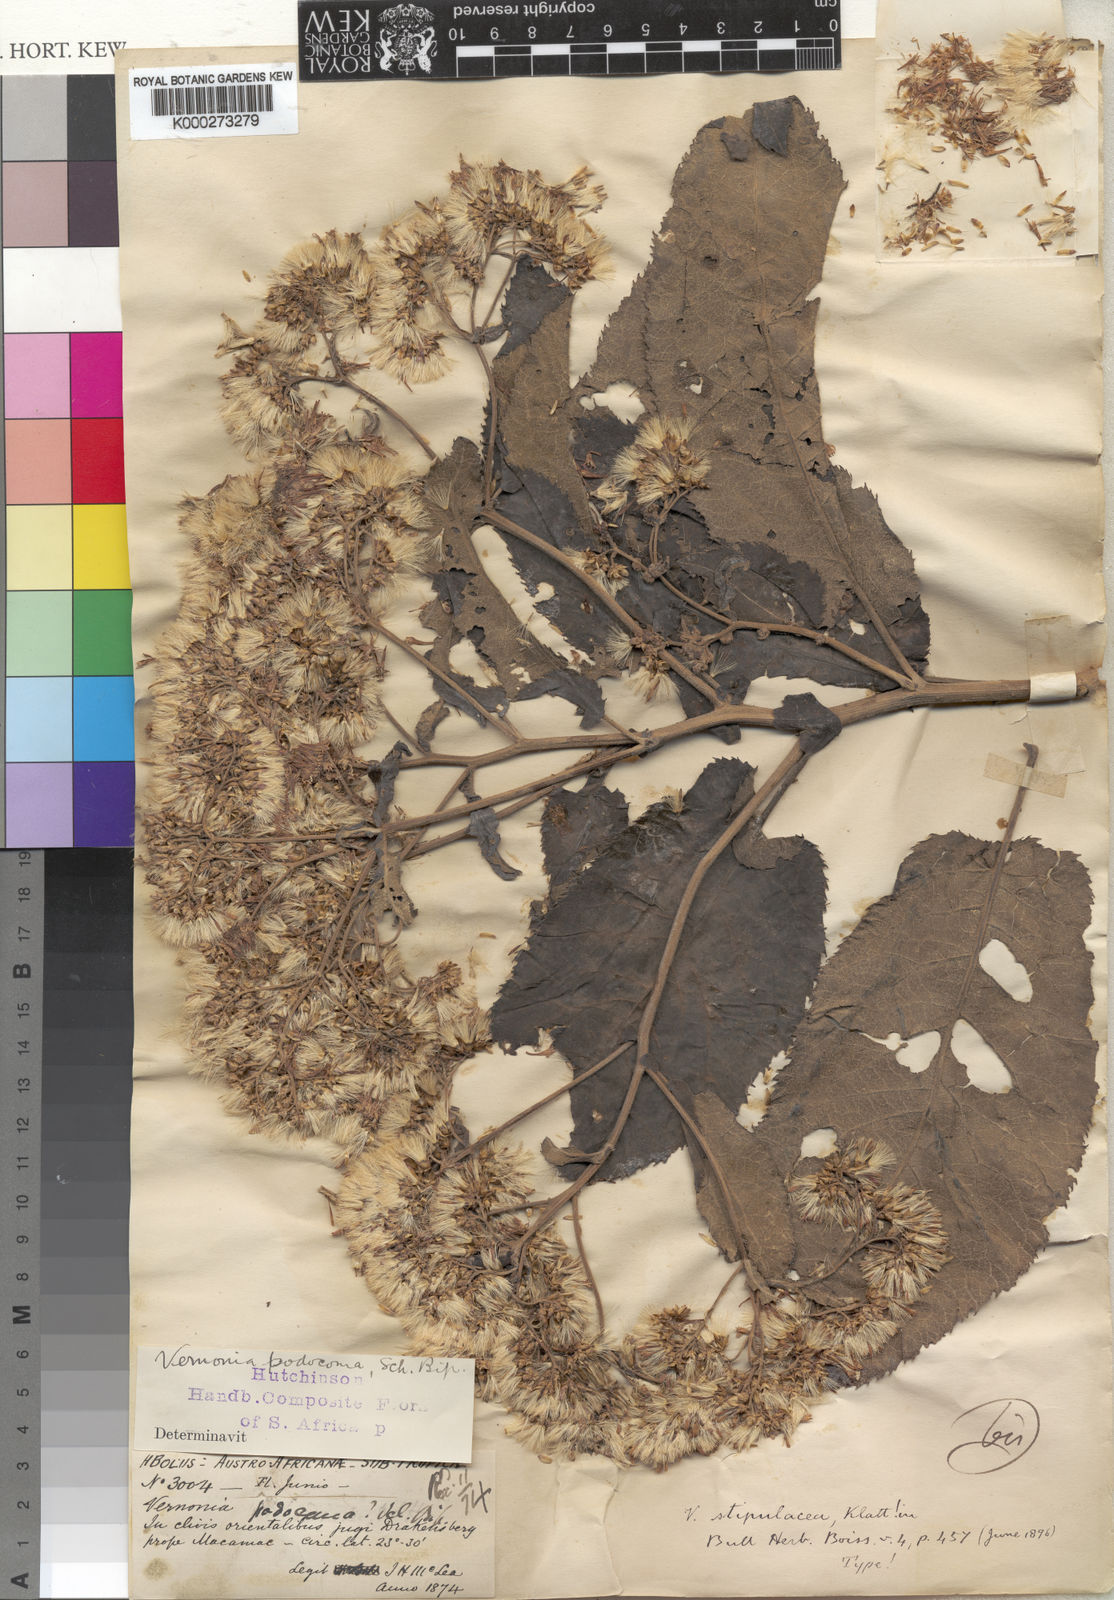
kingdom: Plantae
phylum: Tracheophyta
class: Magnoliopsida
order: Asterales
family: Asteraceae
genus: Vernonia
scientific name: Vernonia
